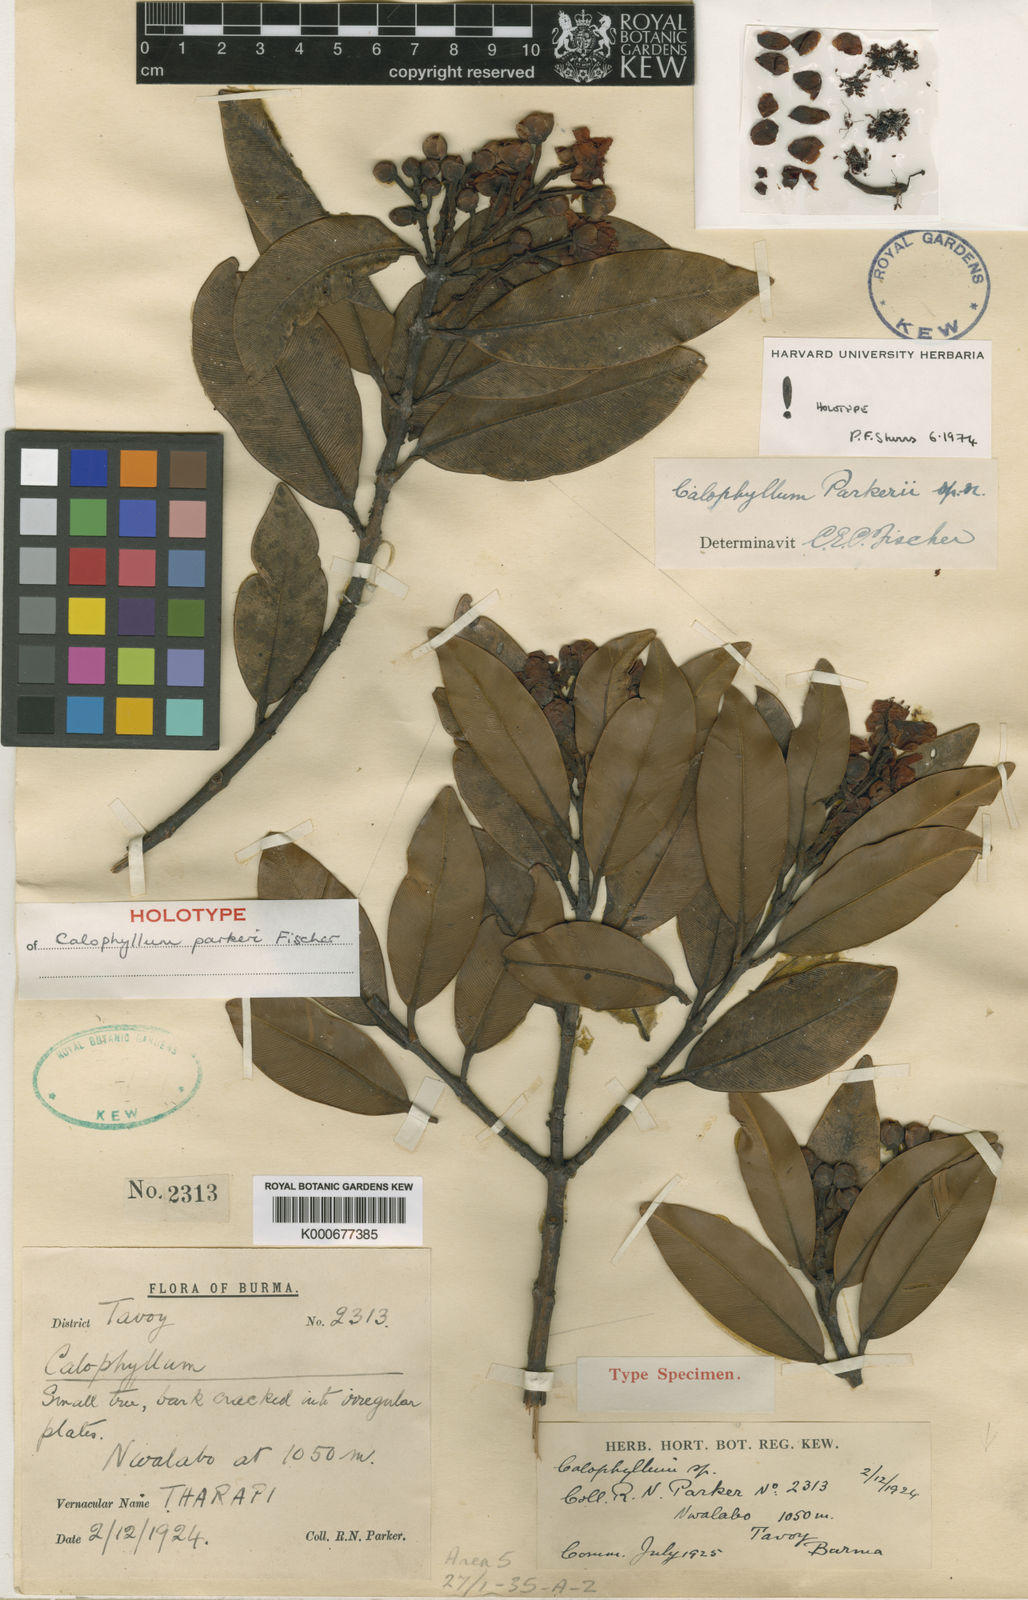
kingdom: Plantae
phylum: Tracheophyta
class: Magnoliopsida
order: Malpighiales
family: Calophyllaceae
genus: Calophyllum
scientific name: Calophyllum parkeri
